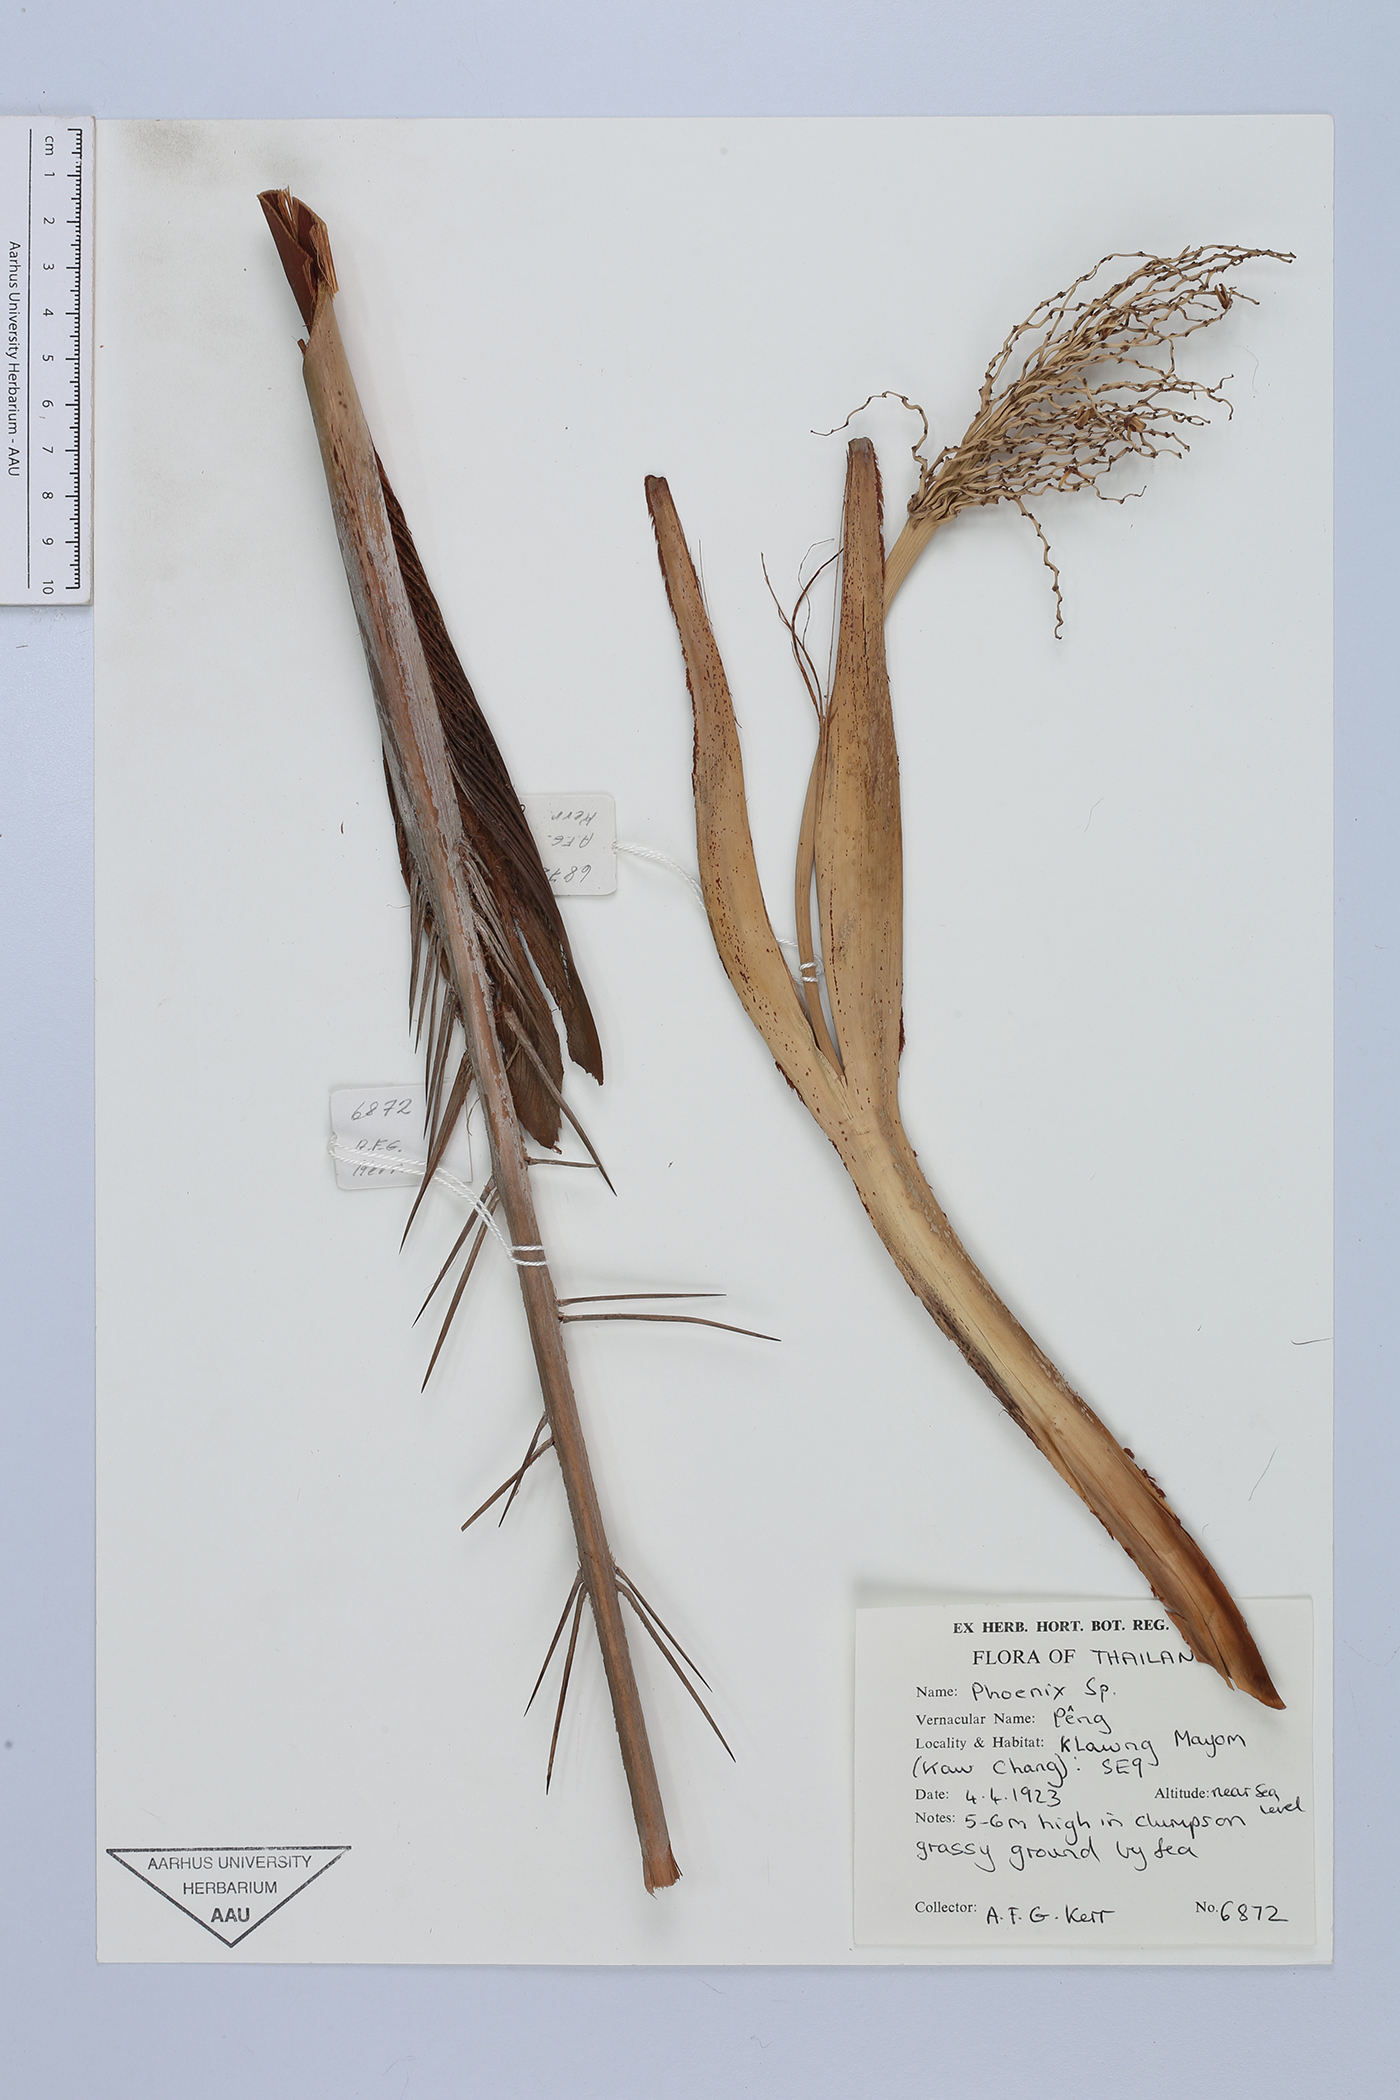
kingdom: Plantae
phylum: Tracheophyta
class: Liliopsida
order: Arecales
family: Arecaceae
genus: Phoenix
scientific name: Phoenix
